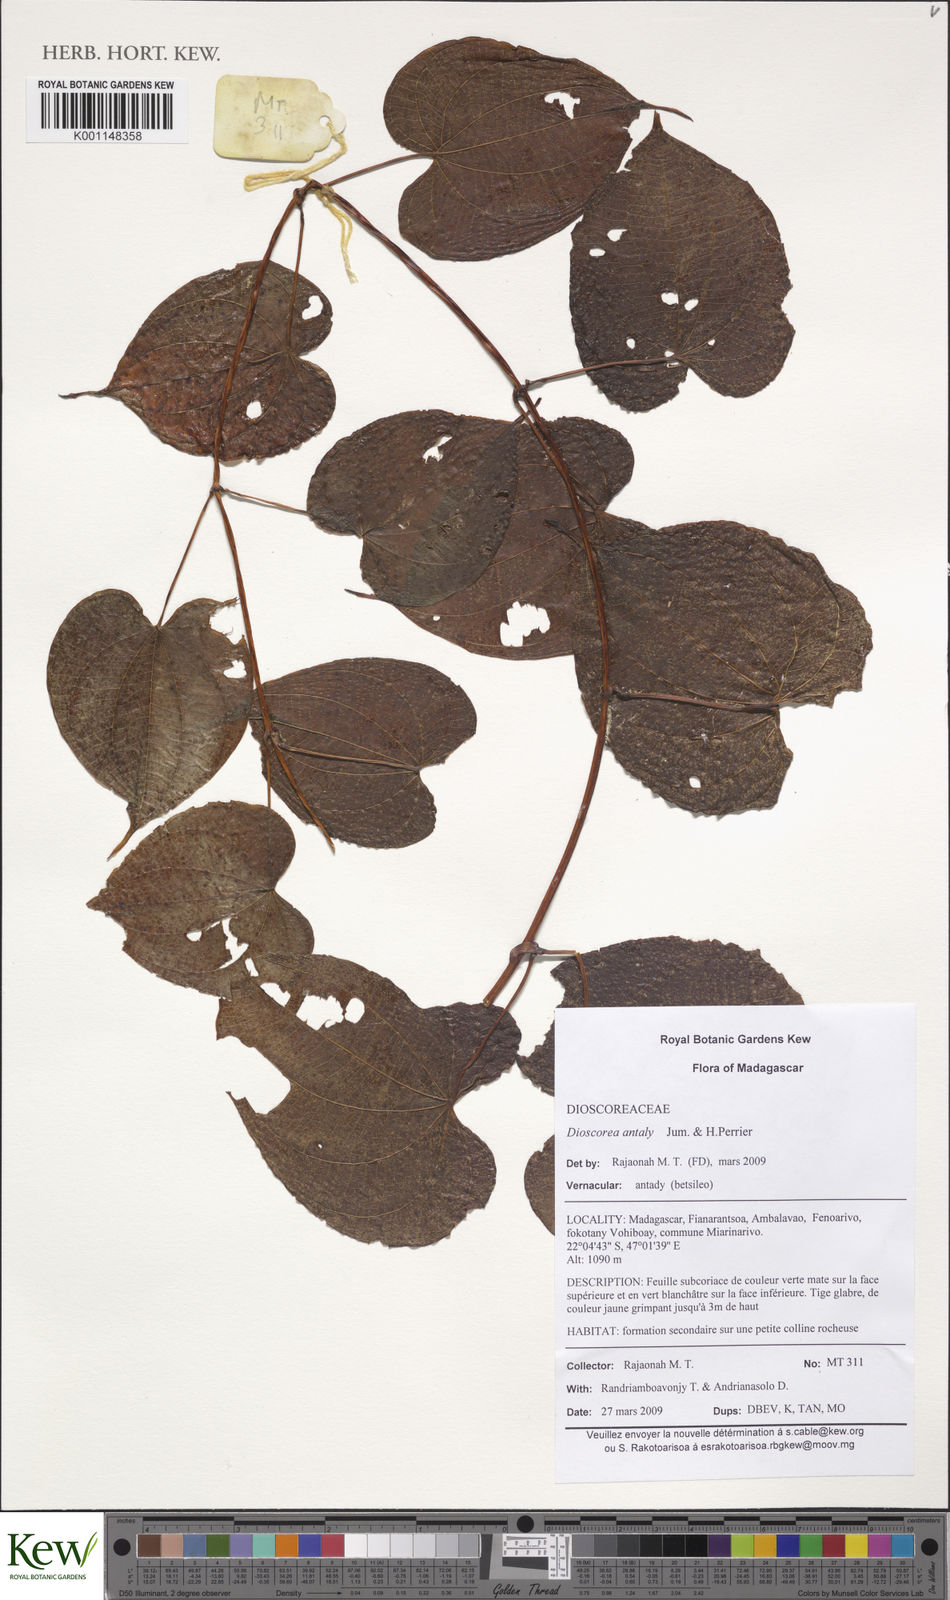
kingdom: Plantae
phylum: Tracheophyta
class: Liliopsida
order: Dioscoreales
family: Dioscoreaceae
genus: Dioscorea
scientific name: Dioscorea antaly
